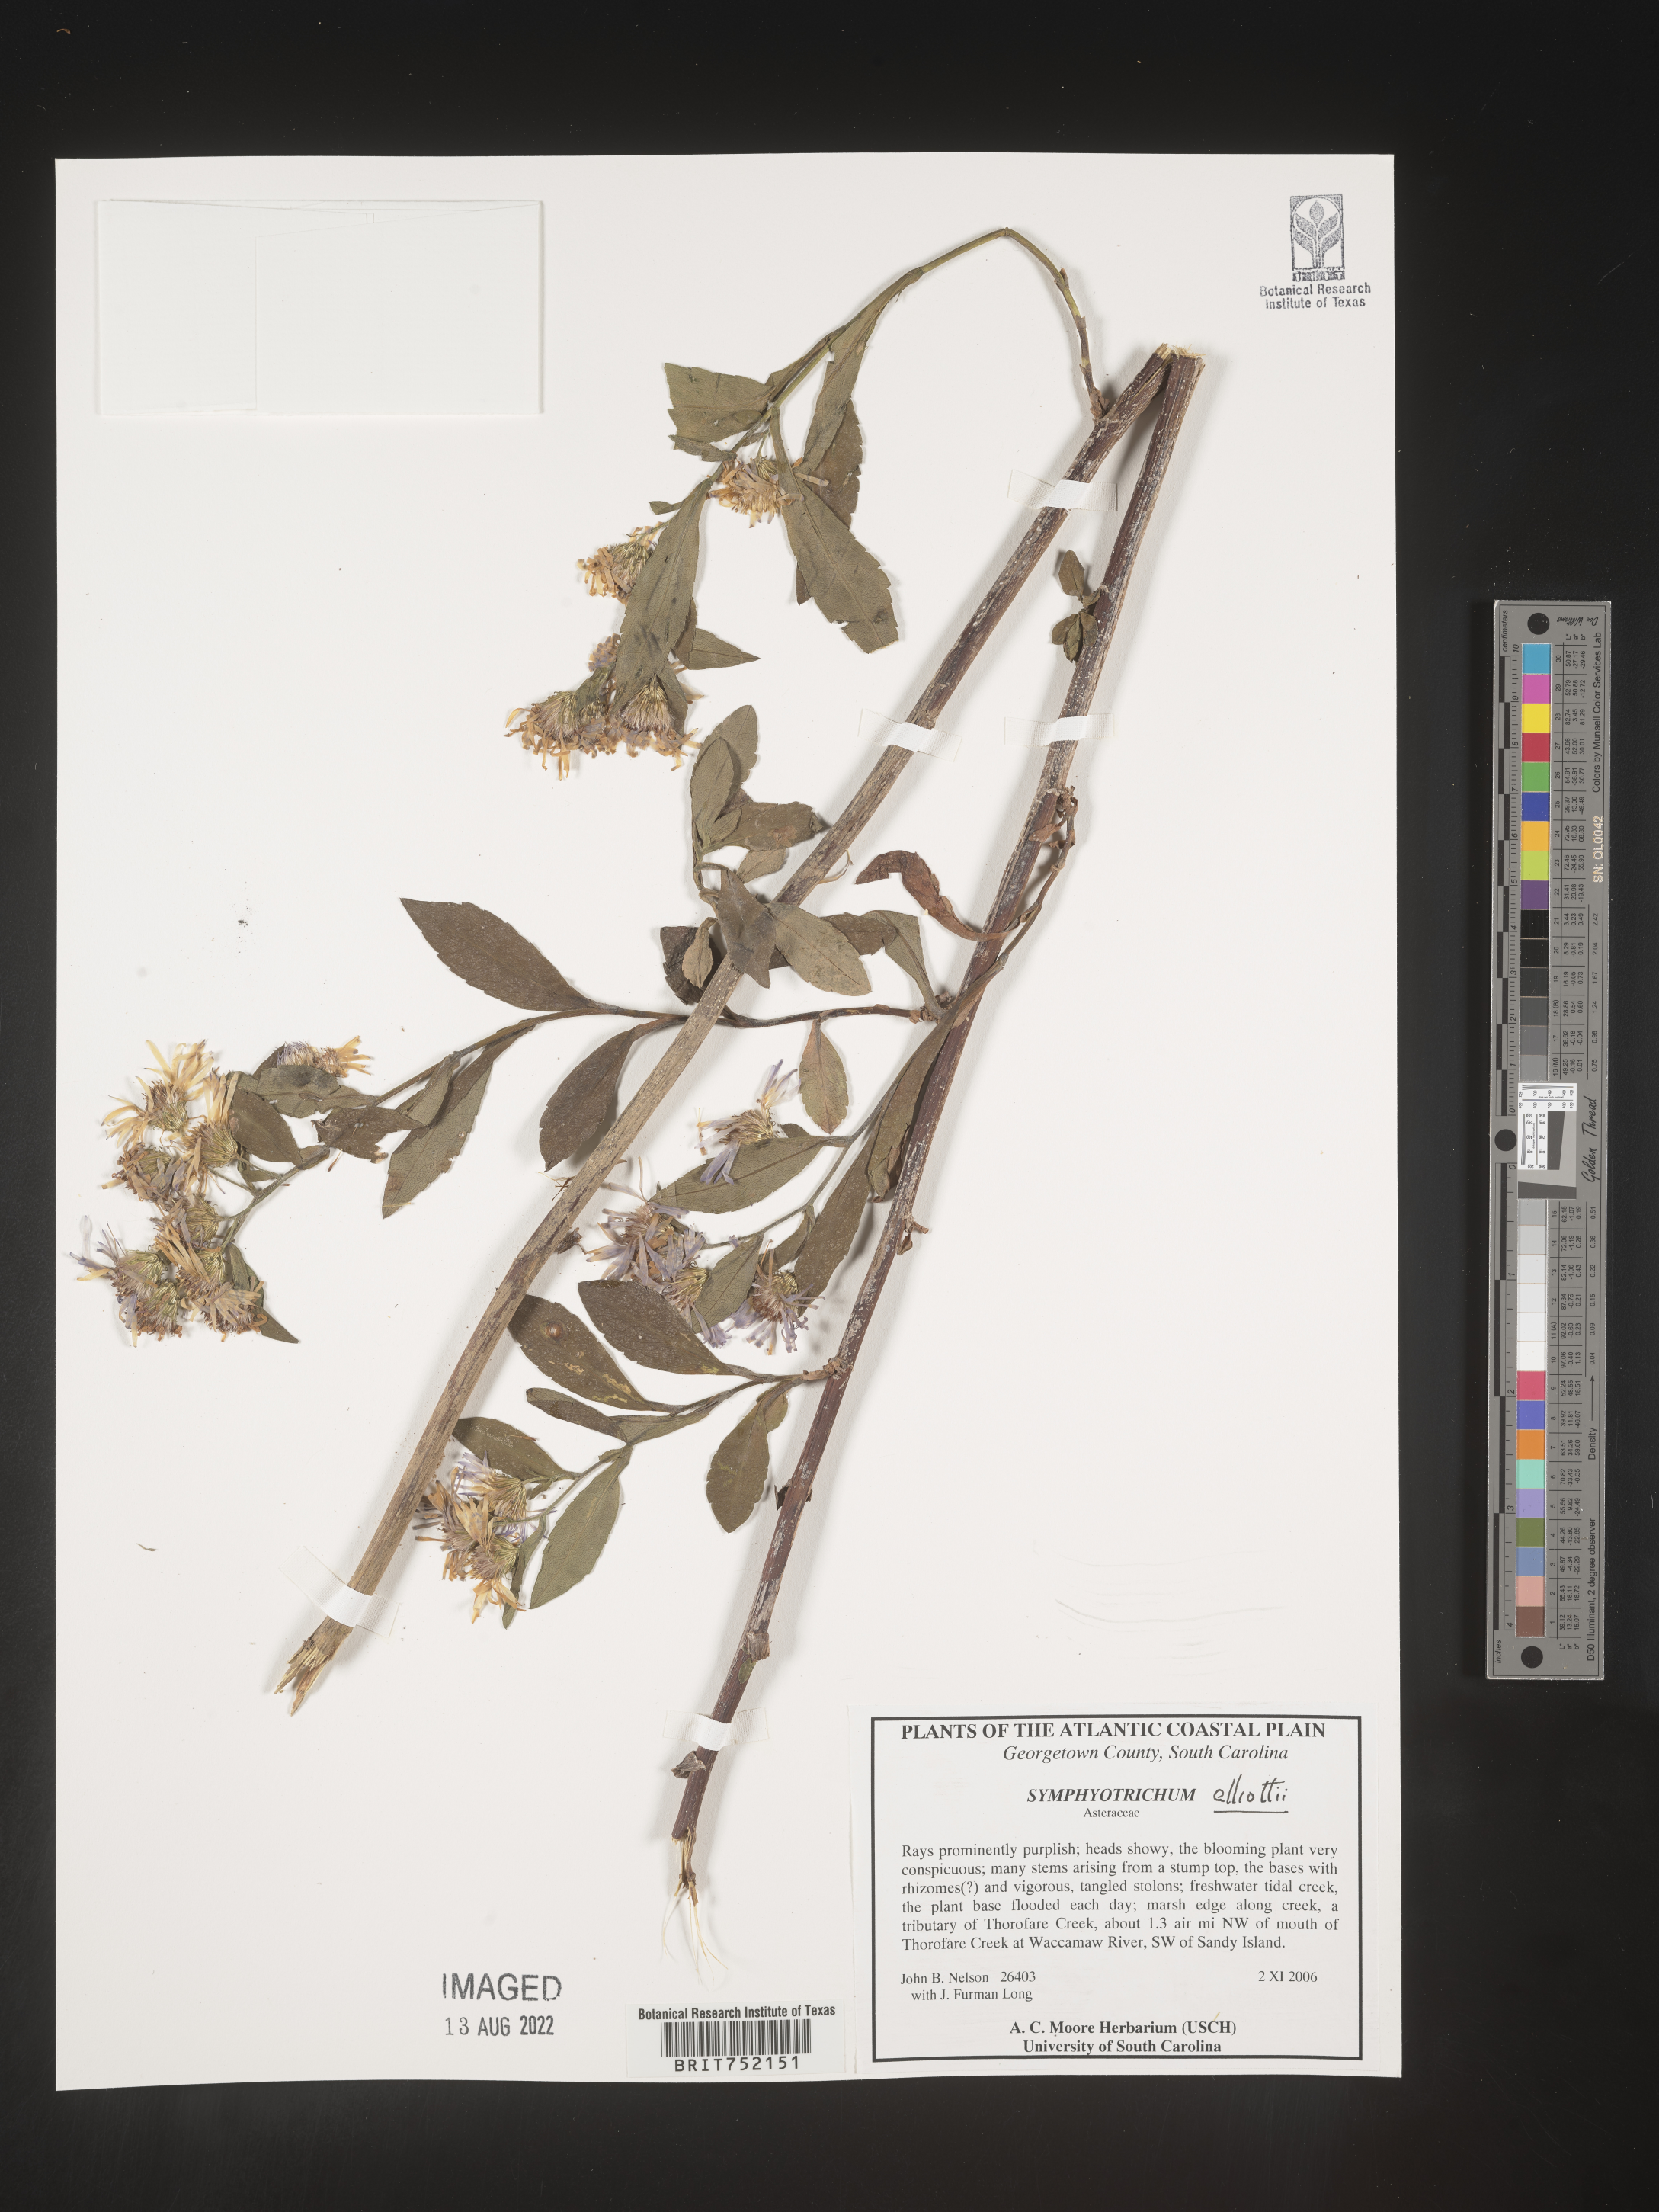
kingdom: Plantae
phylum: Tracheophyta
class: Magnoliopsida
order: Asterales
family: Asteraceae
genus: Symphyotrichum
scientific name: Symphyotrichum elliottii
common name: Southern swamp aster
